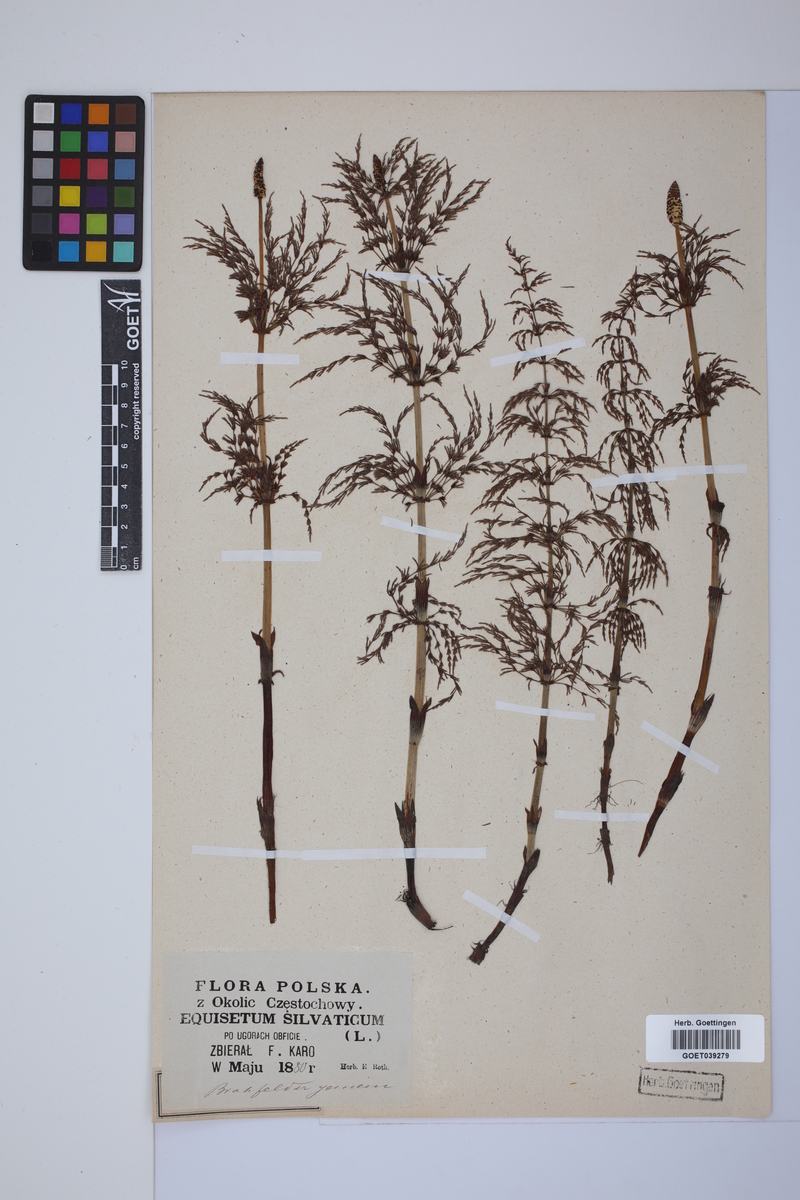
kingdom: Plantae
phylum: Tracheophyta
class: Polypodiopsida
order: Equisetales
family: Equisetaceae
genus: Equisetum
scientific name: Equisetum sylvaticum
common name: Wood horsetail
